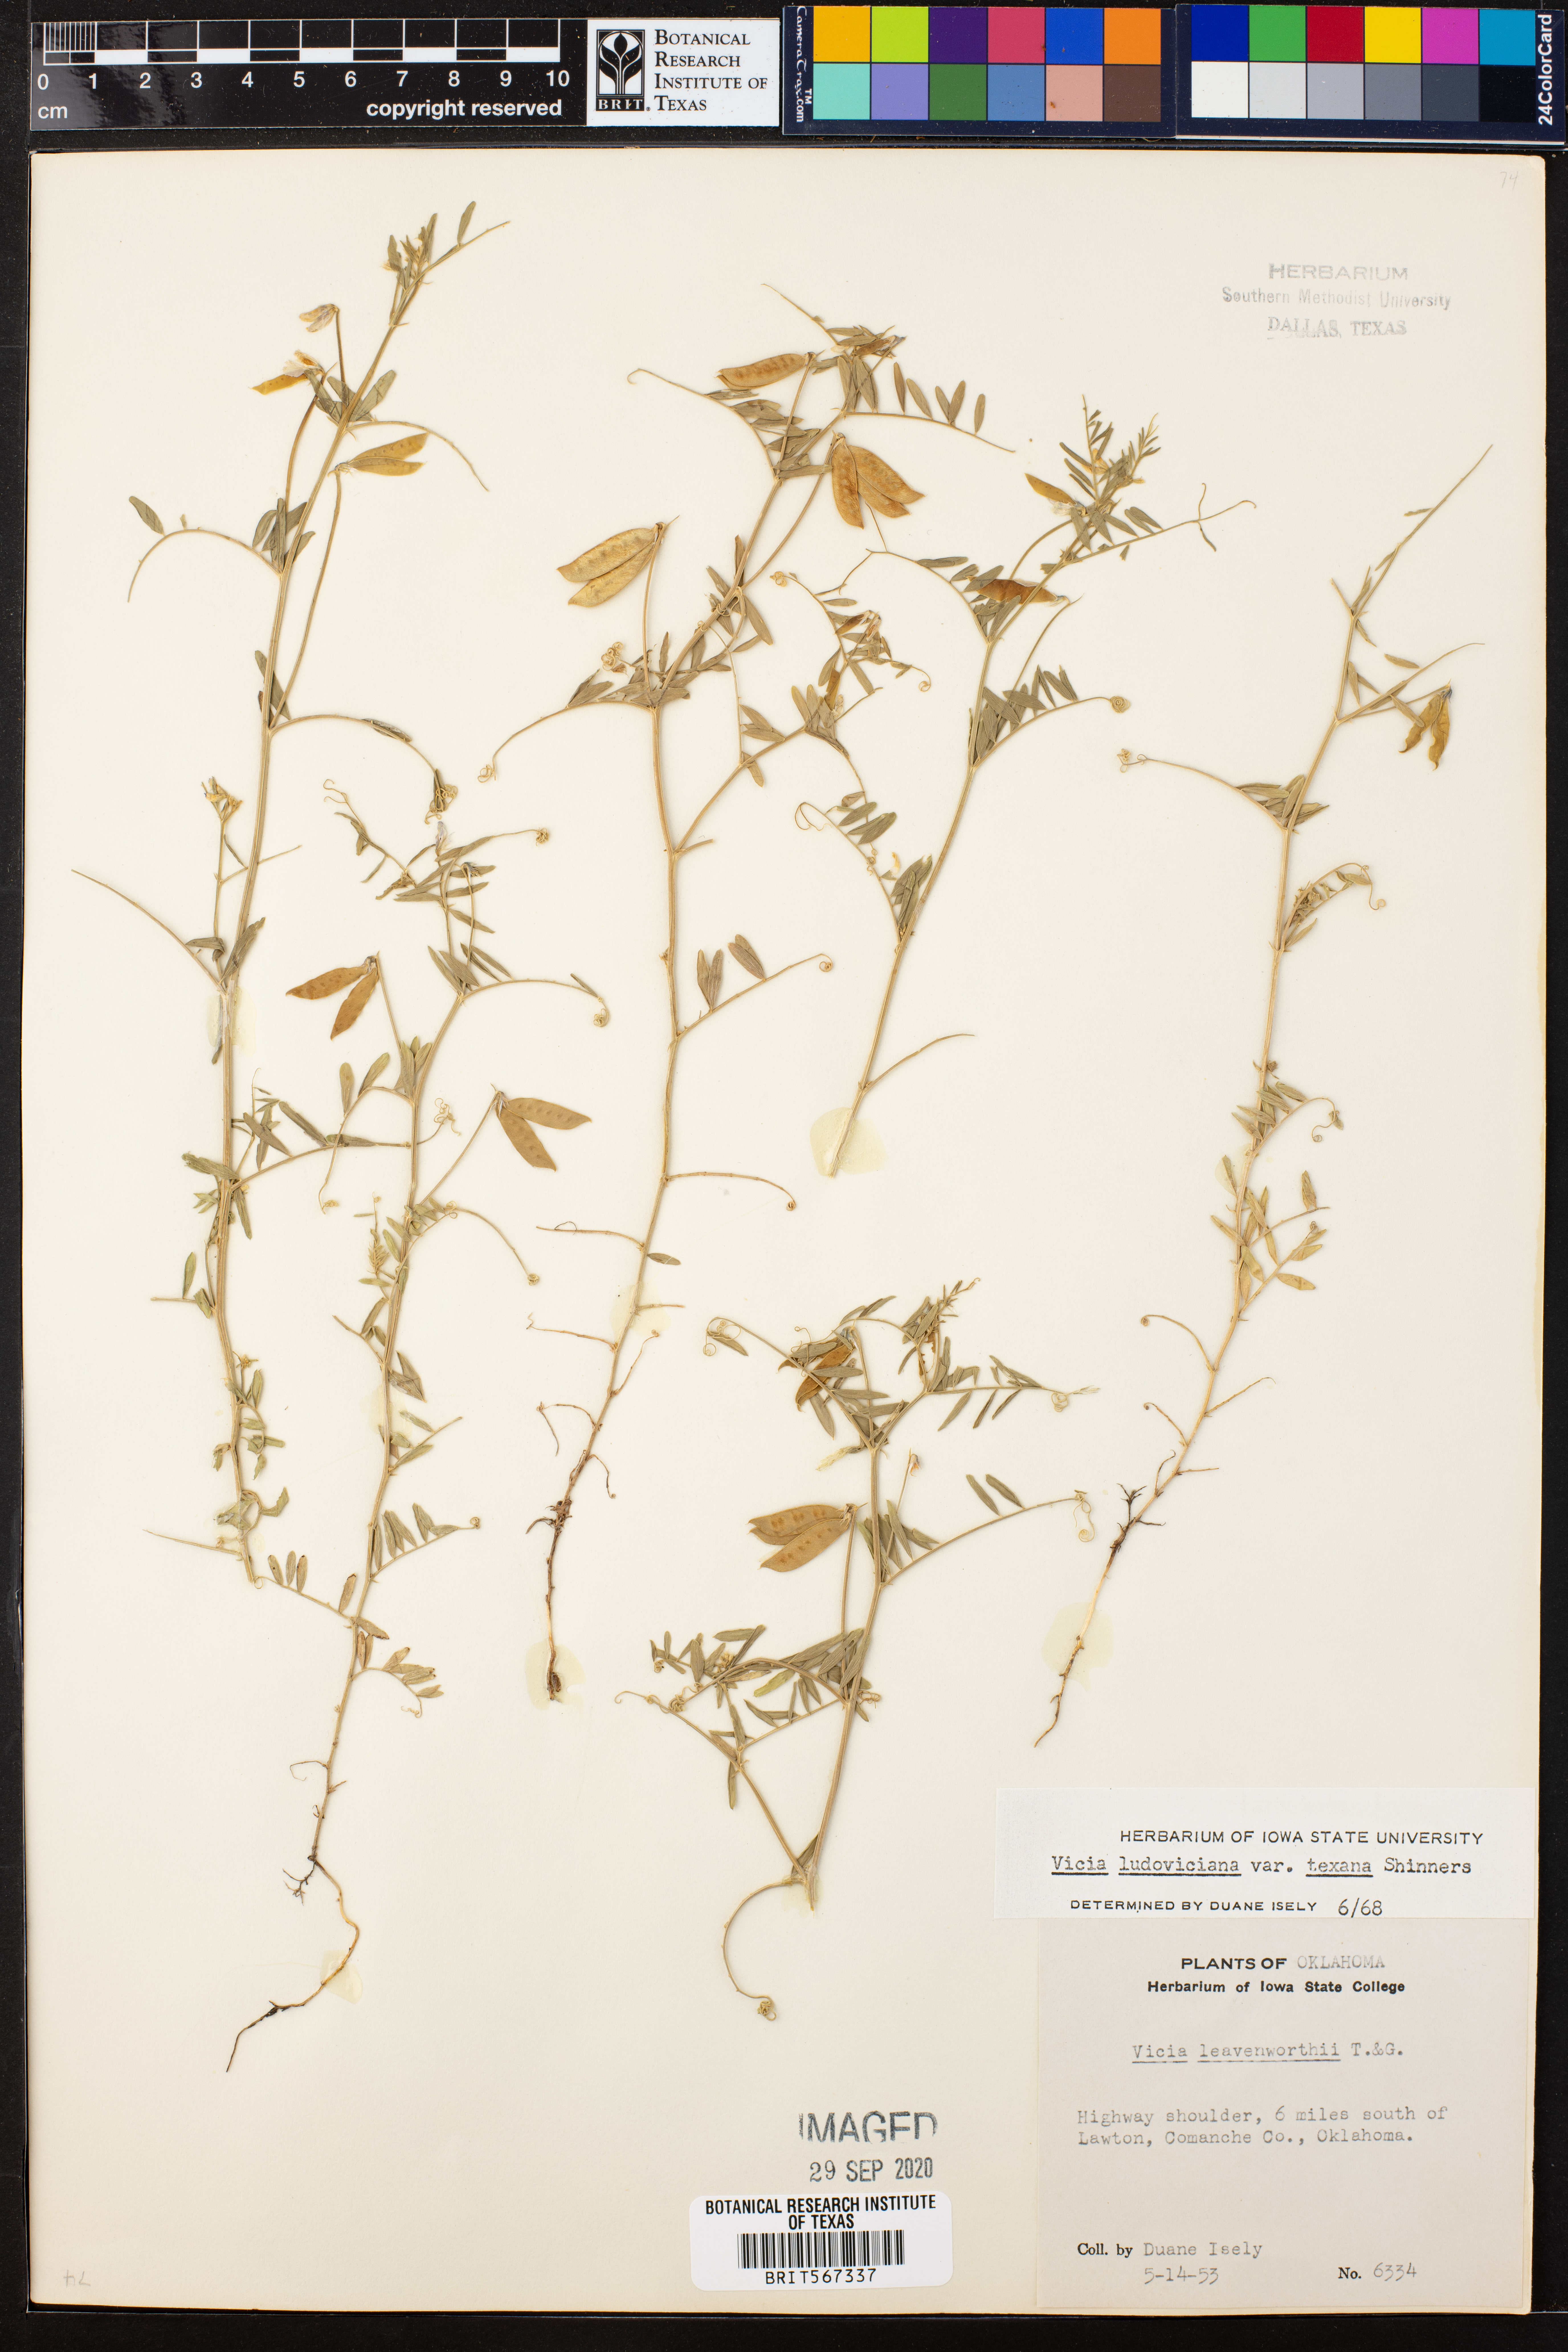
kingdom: Plantae
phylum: Tracheophyta
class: Magnoliopsida
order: Fabales
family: Fabaceae
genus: Vicia
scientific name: Vicia ludoviciana
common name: Louisiana vetch
